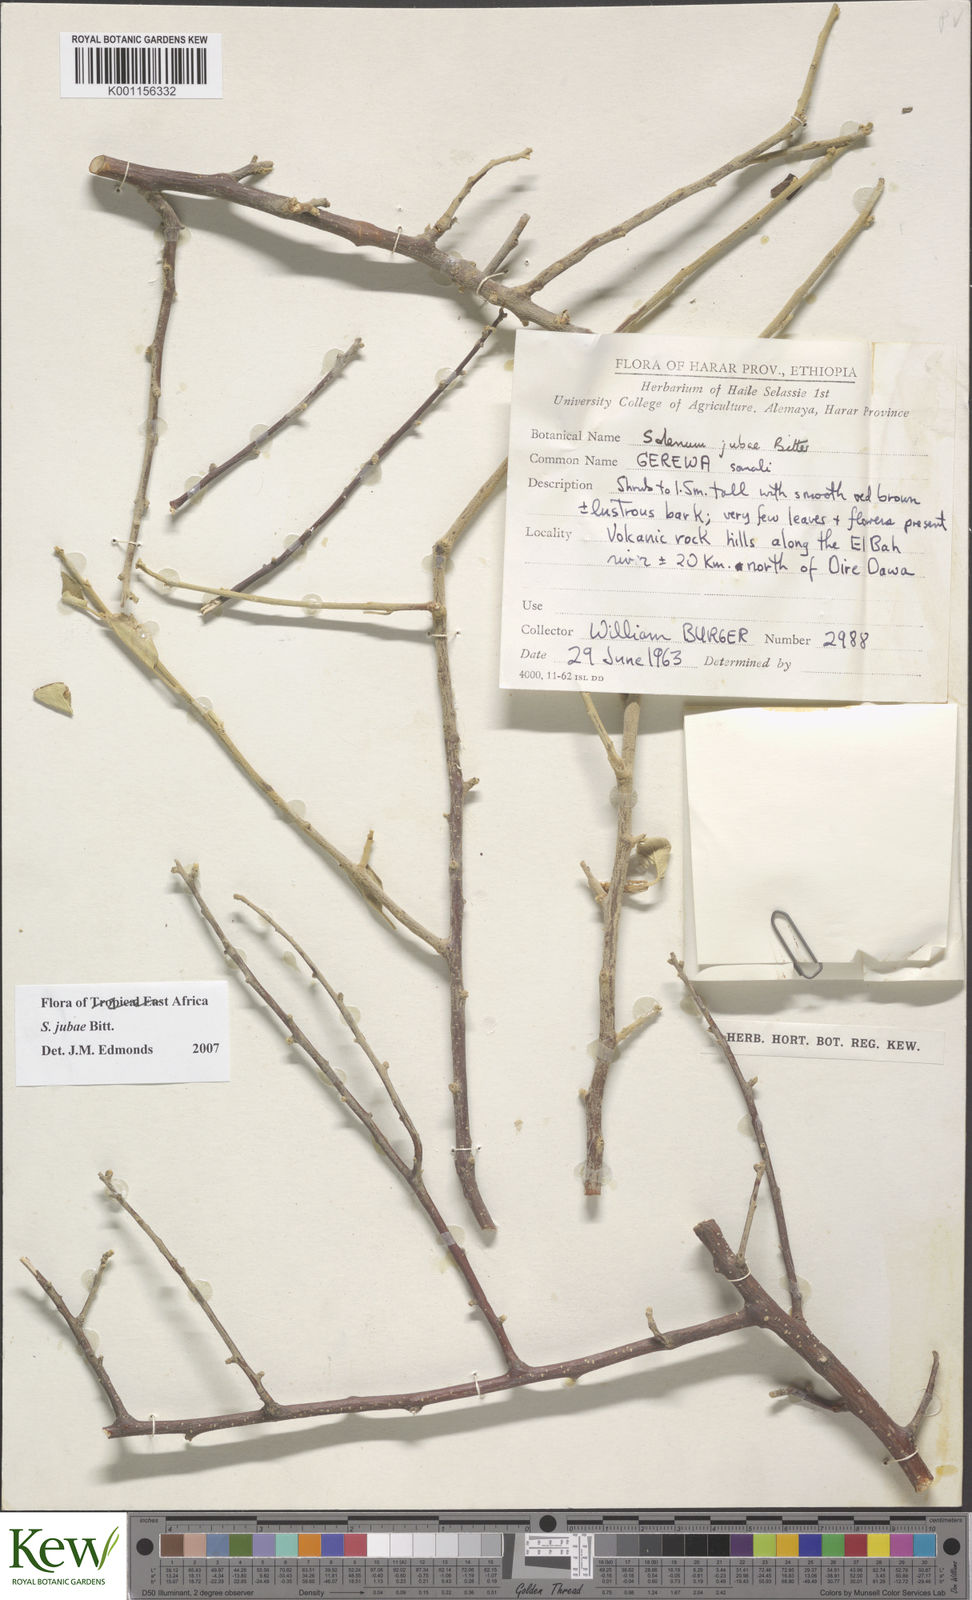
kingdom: Plantae
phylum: Tracheophyta
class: Magnoliopsida
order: Solanales
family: Solanaceae
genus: Solanum
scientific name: Solanum jubae
